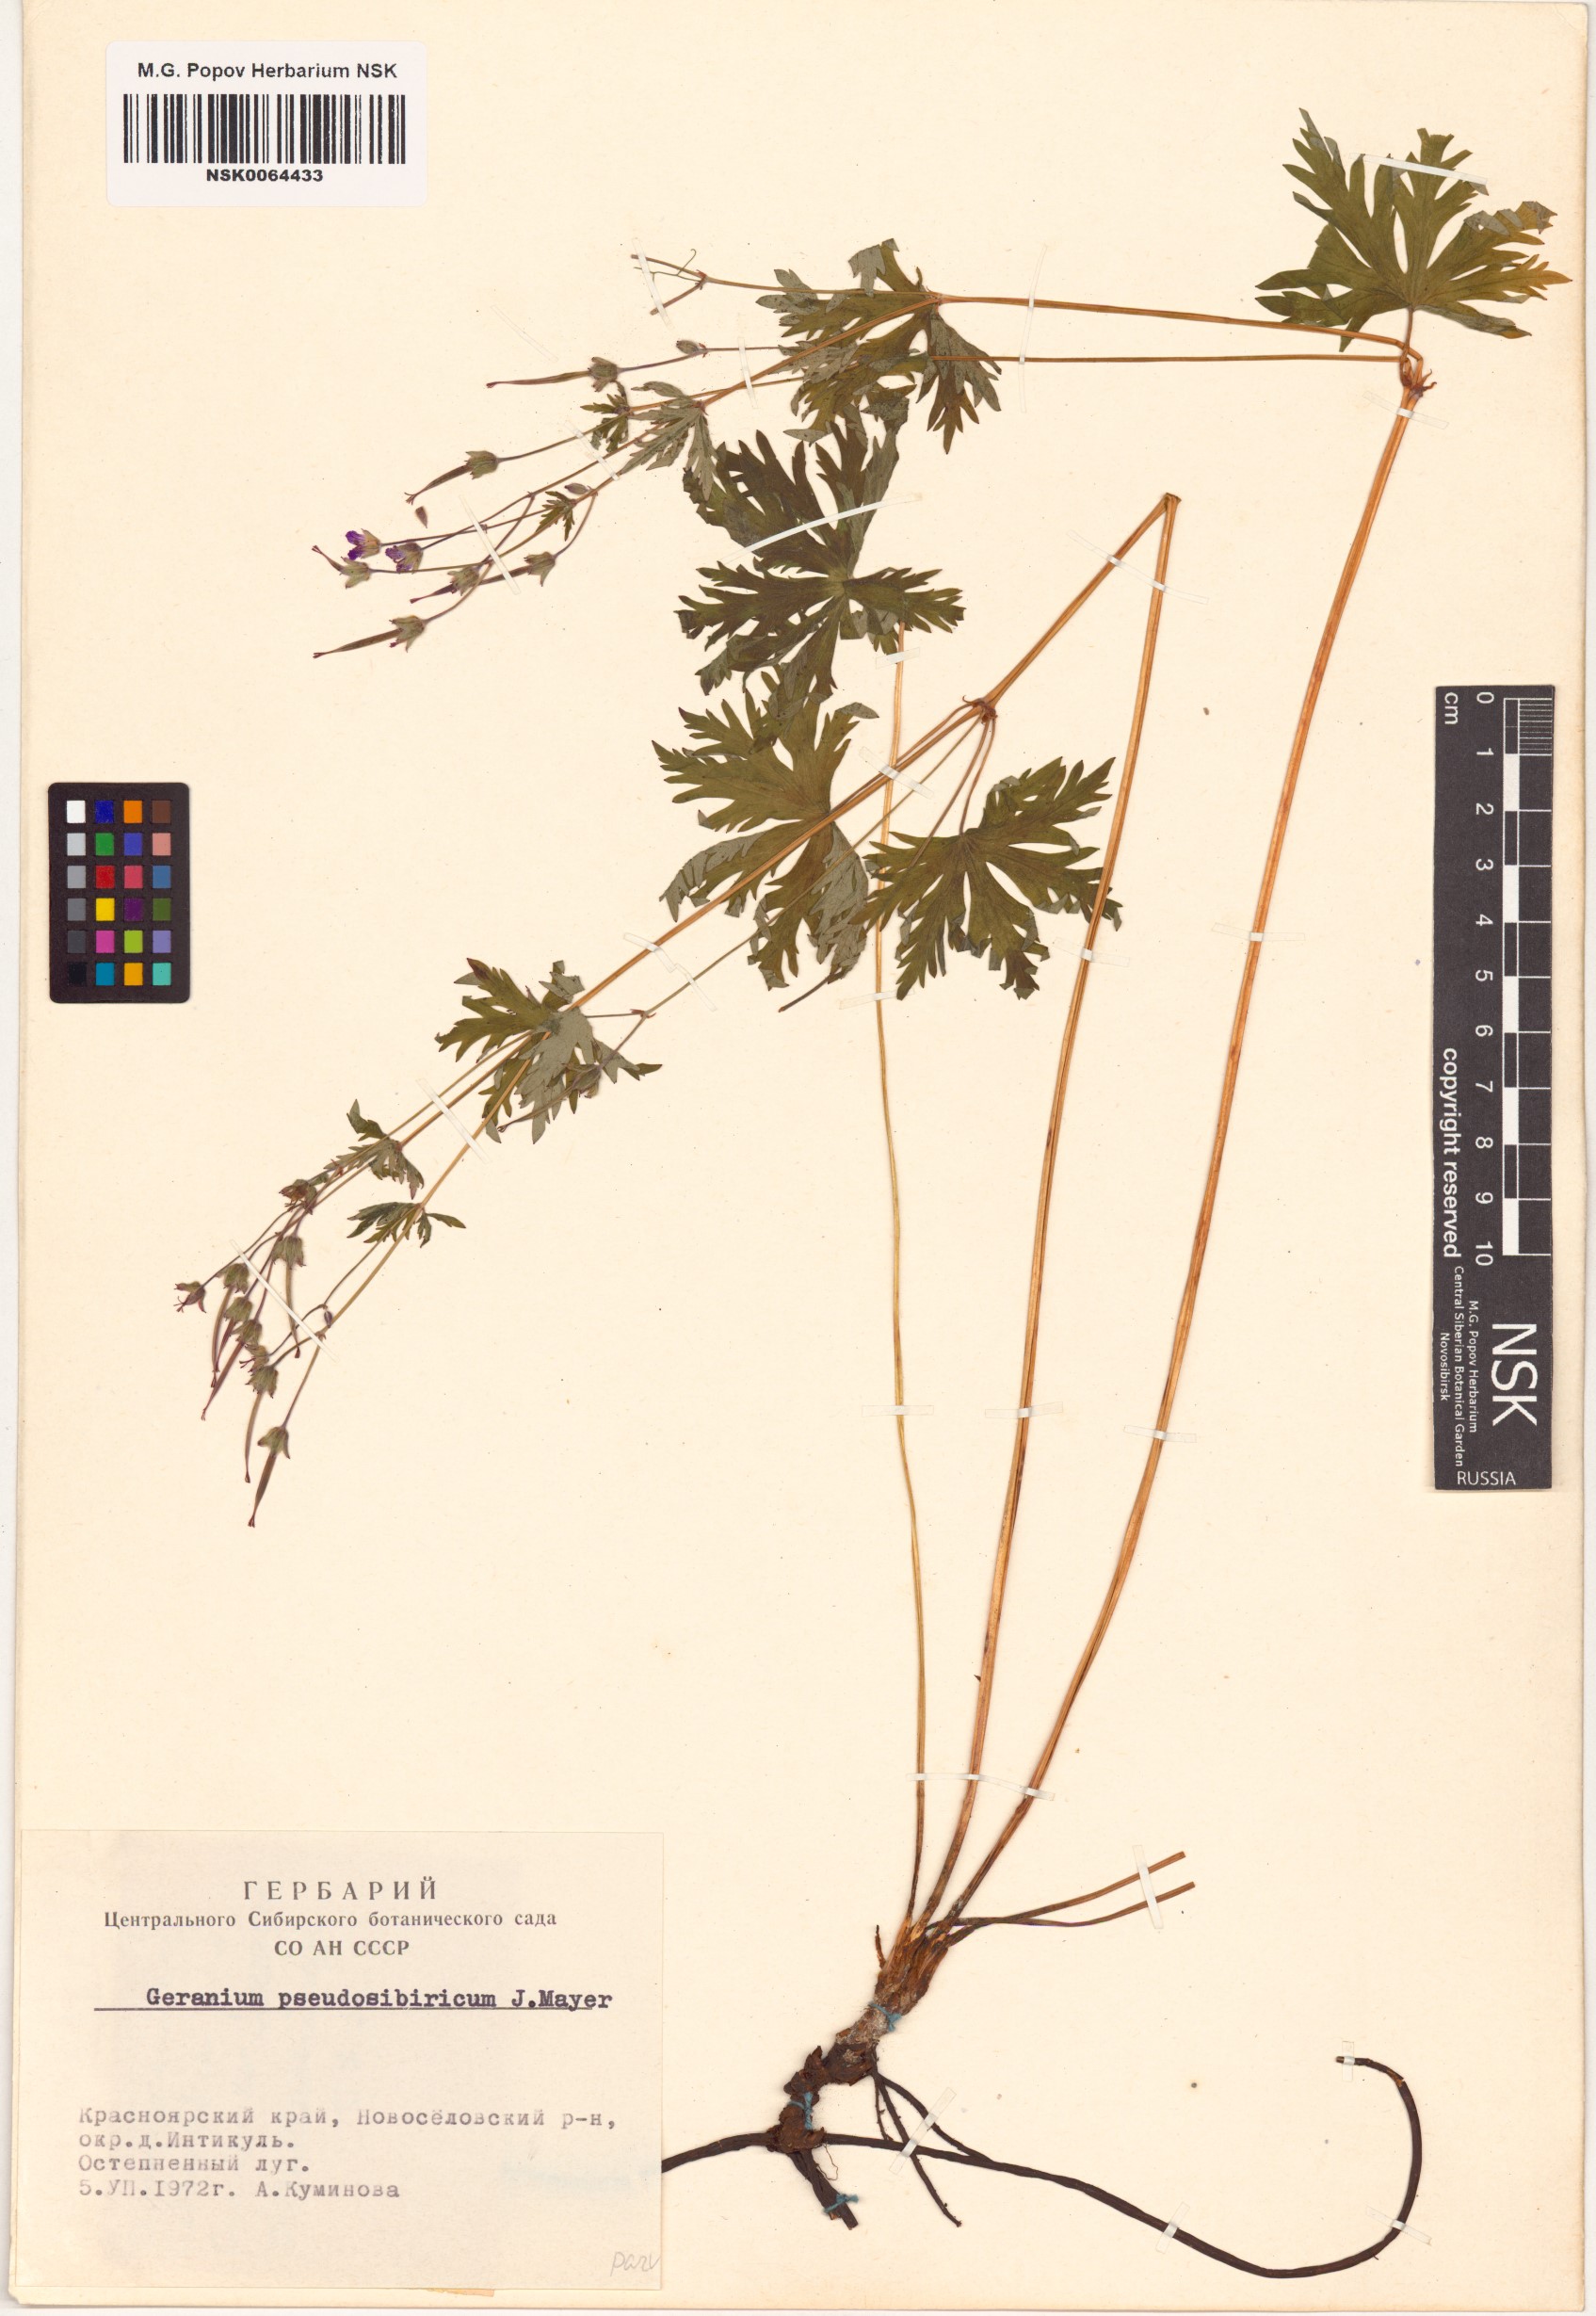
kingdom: Plantae
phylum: Tracheophyta
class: Magnoliopsida
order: Geraniales
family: Geraniaceae
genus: Geranium
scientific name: Geranium pseudosibiricum
